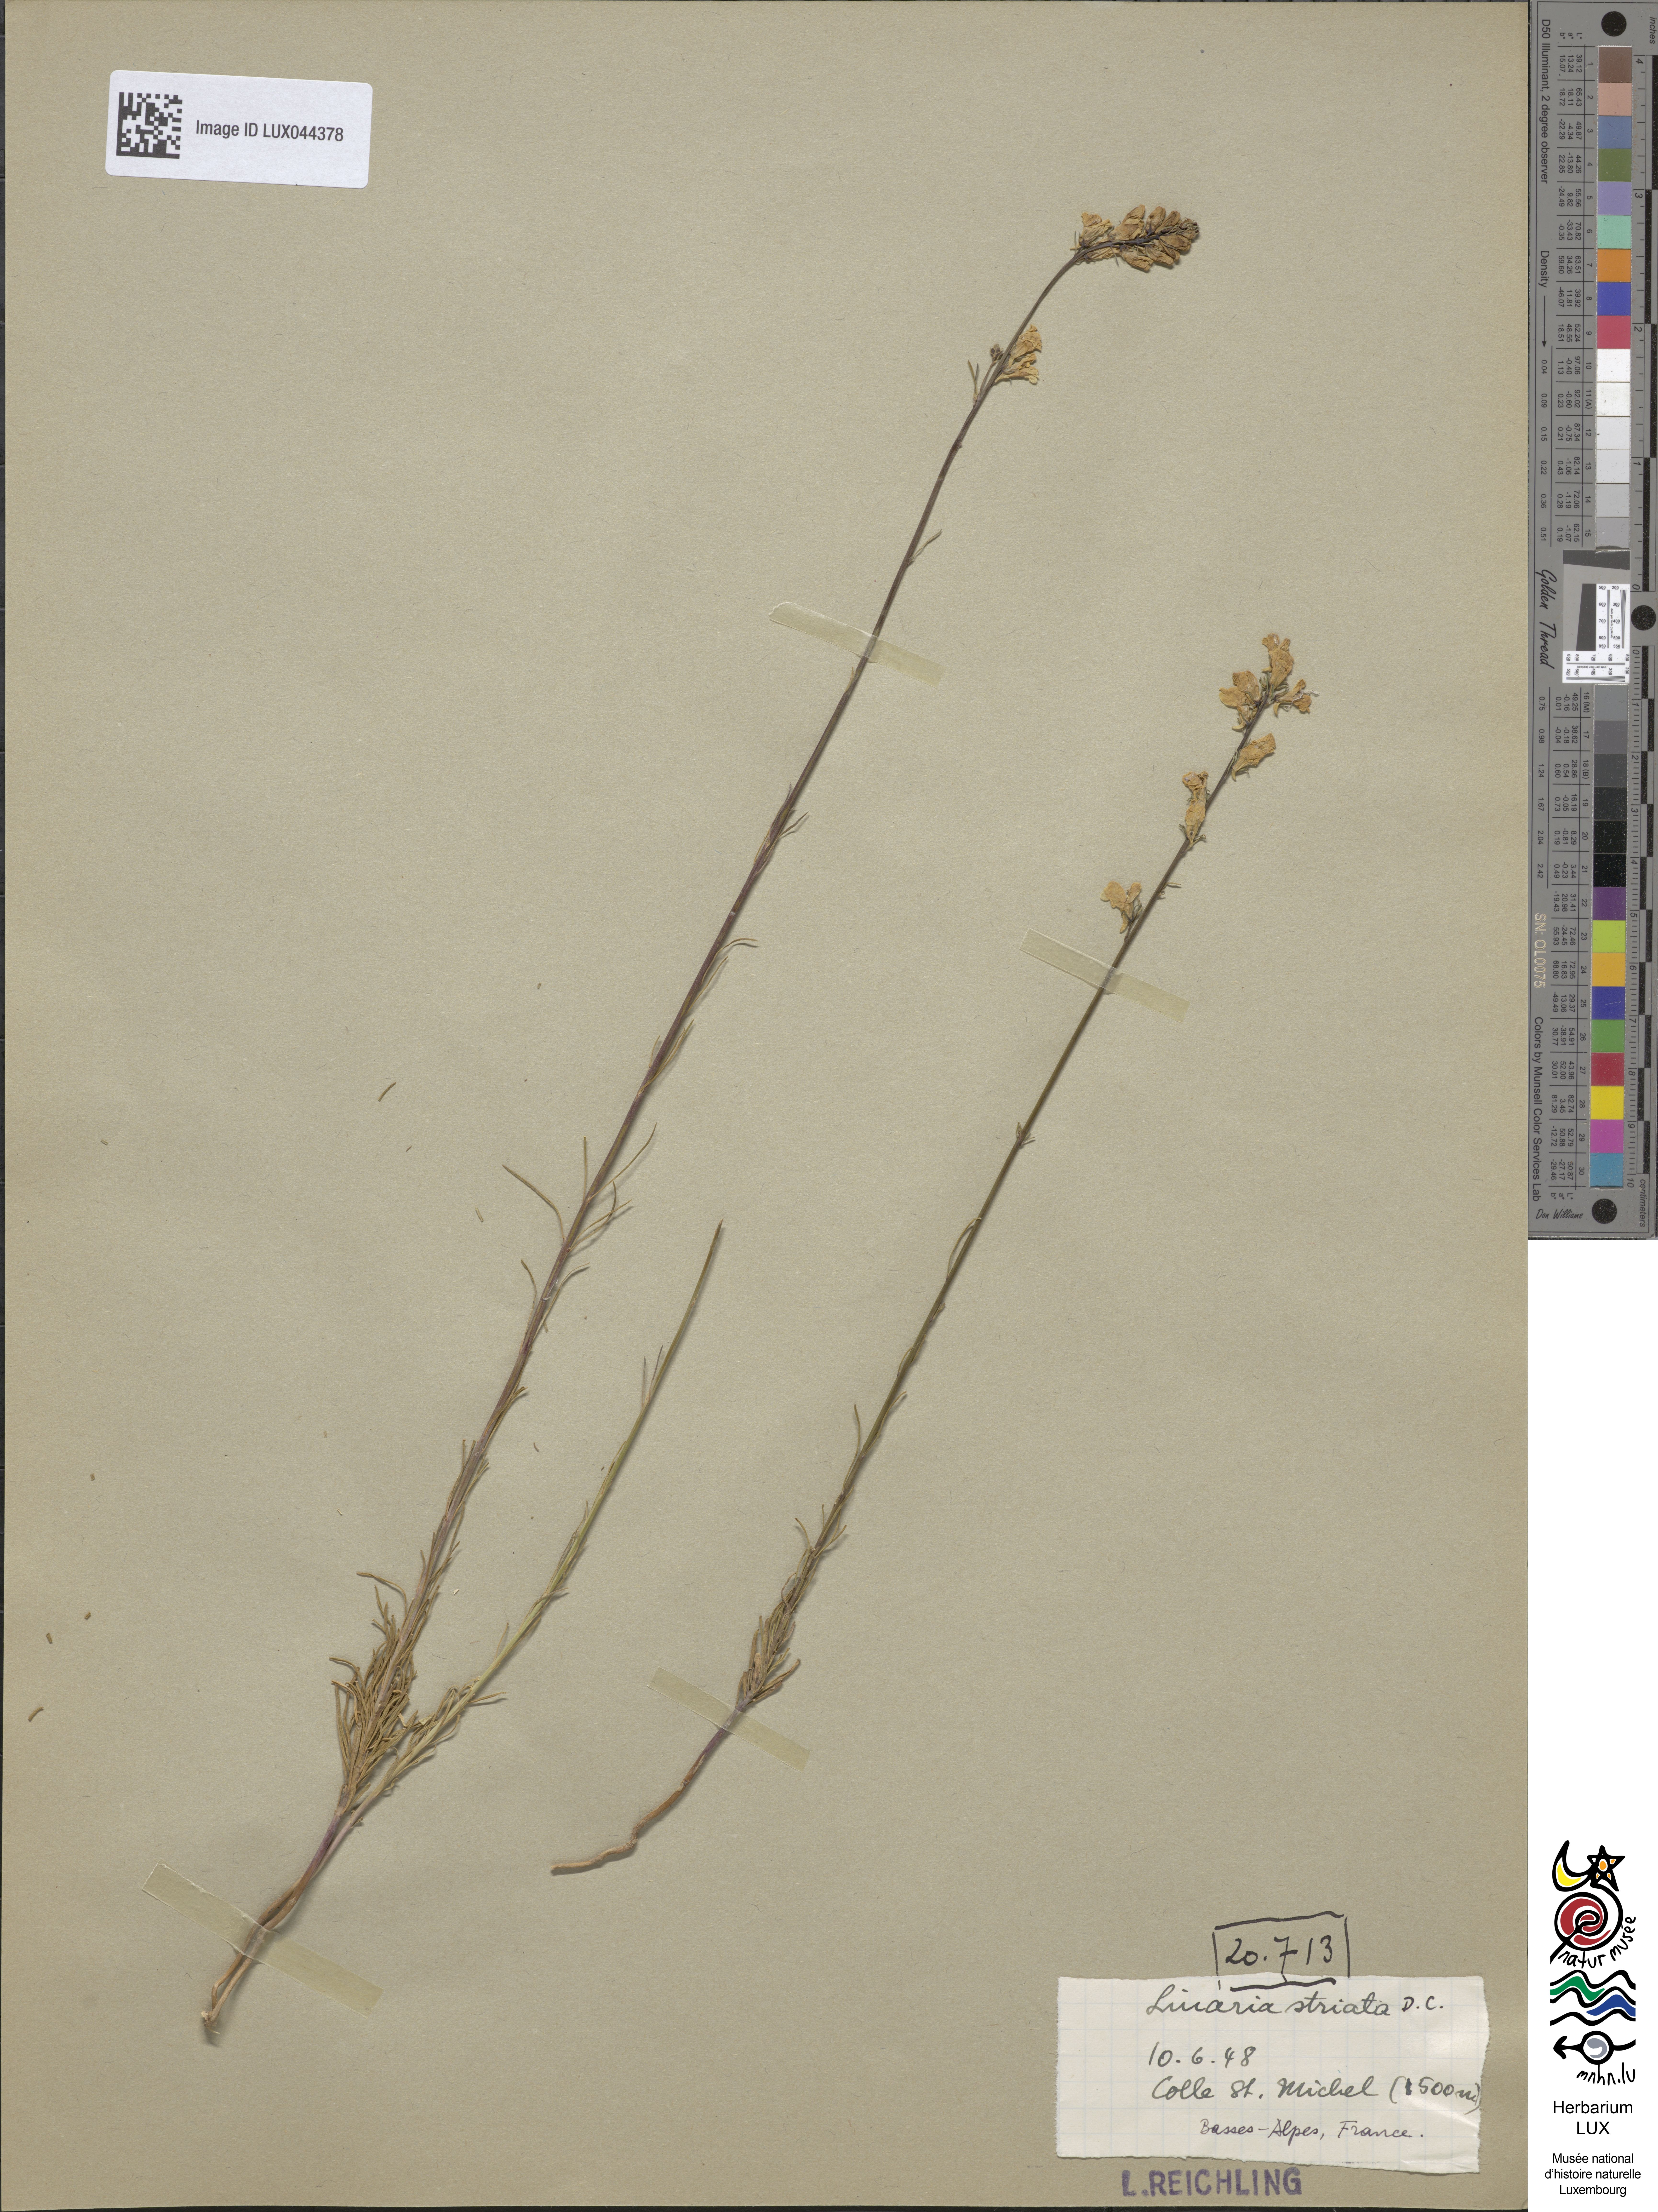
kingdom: Plantae
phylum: Tracheophyta
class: Magnoliopsida
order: Lamiales
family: Plantaginaceae
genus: Linaria
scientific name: Linaria repens
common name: Pale toadflax
